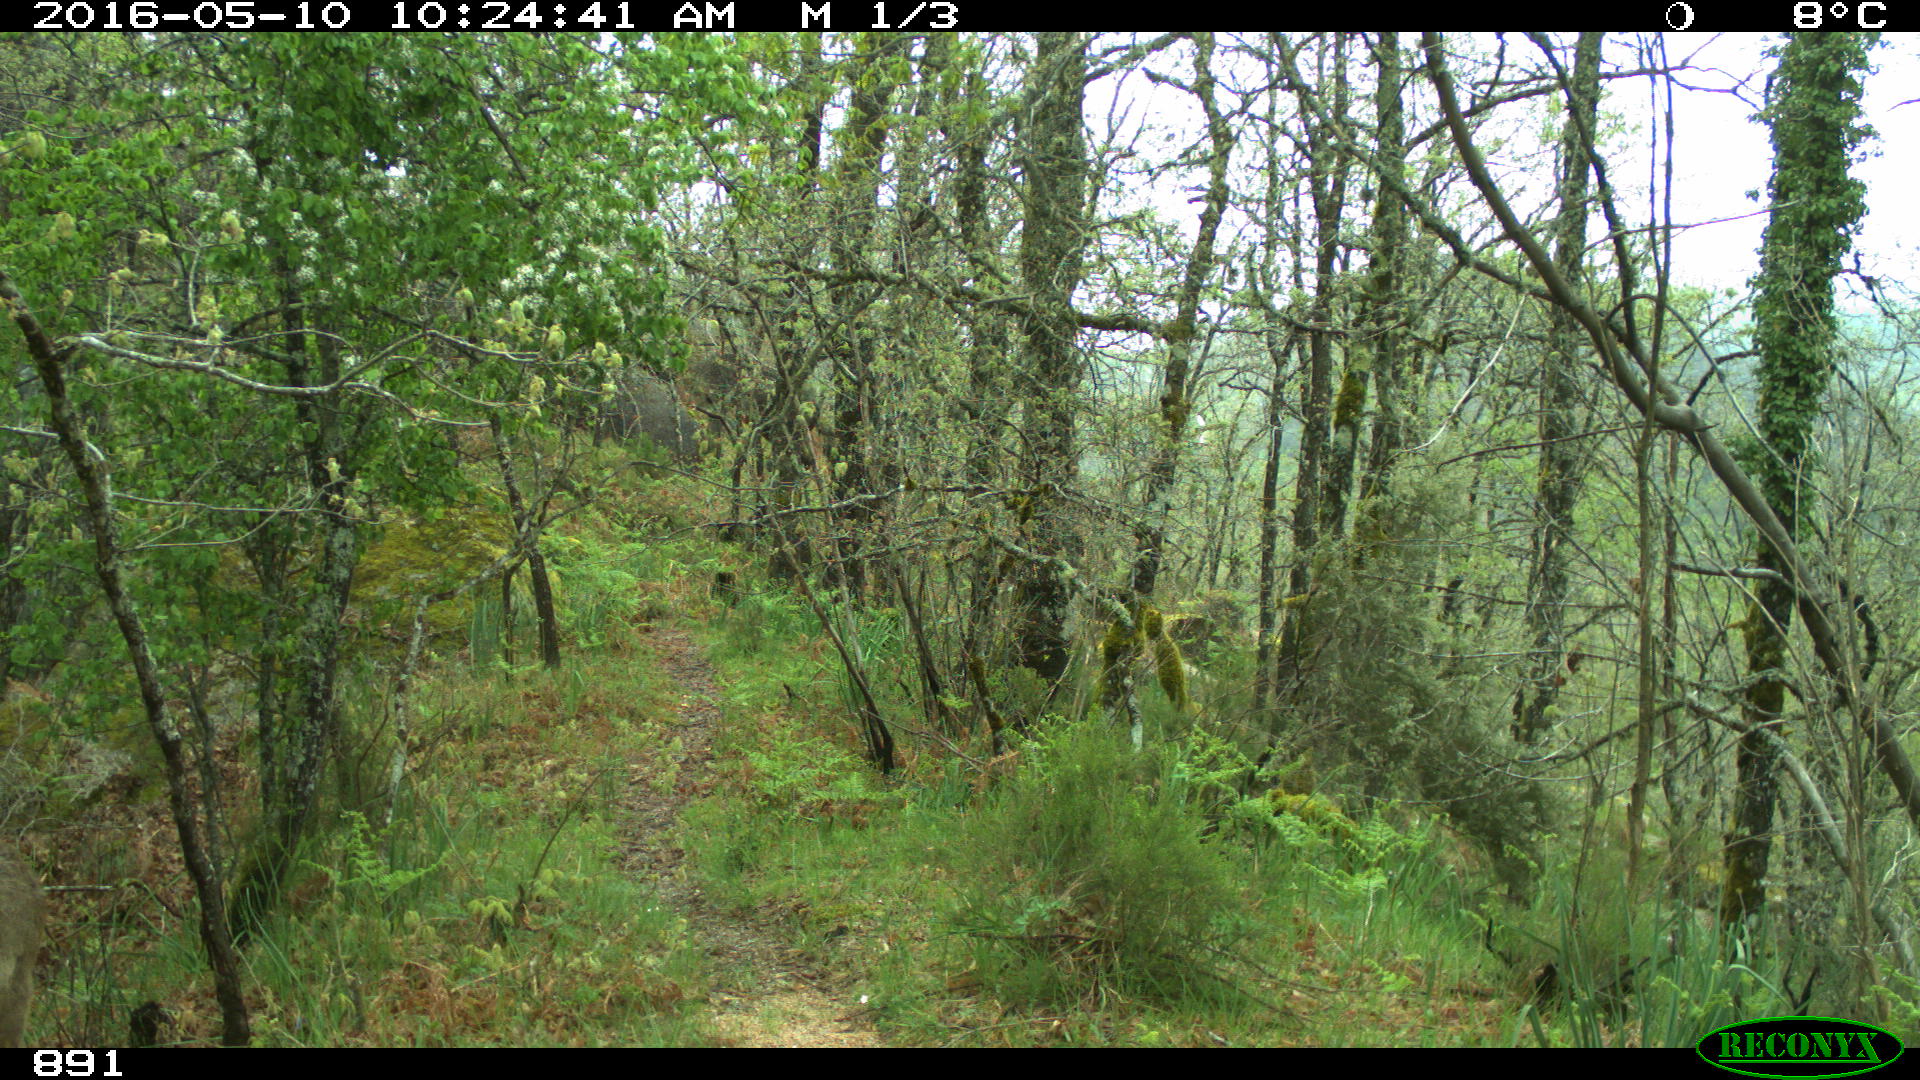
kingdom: Animalia
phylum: Chordata
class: Mammalia
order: Artiodactyla
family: Cervidae
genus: Capreolus
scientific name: Capreolus capreolus
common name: Western roe deer
